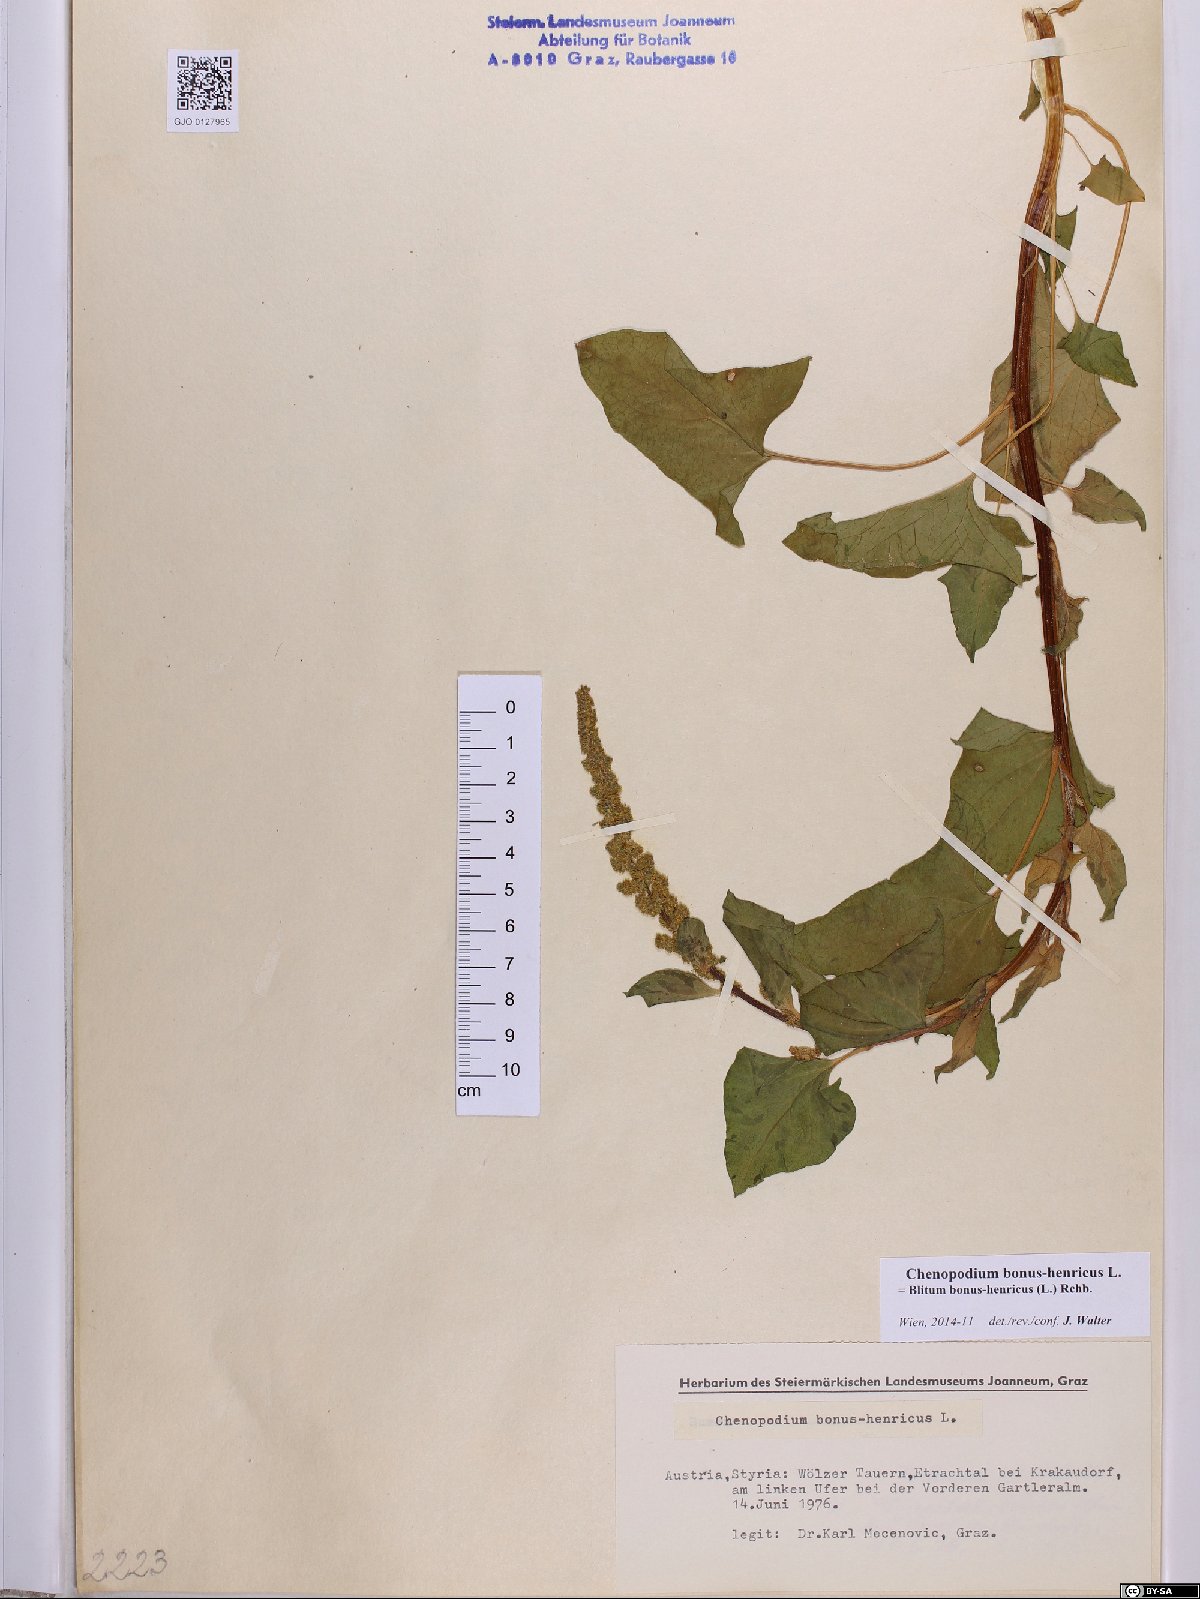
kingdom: Plantae
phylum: Tracheophyta
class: Magnoliopsida
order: Caryophyllales
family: Amaranthaceae
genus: Blitum
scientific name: Blitum bonus-henricus
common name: Good king henry
